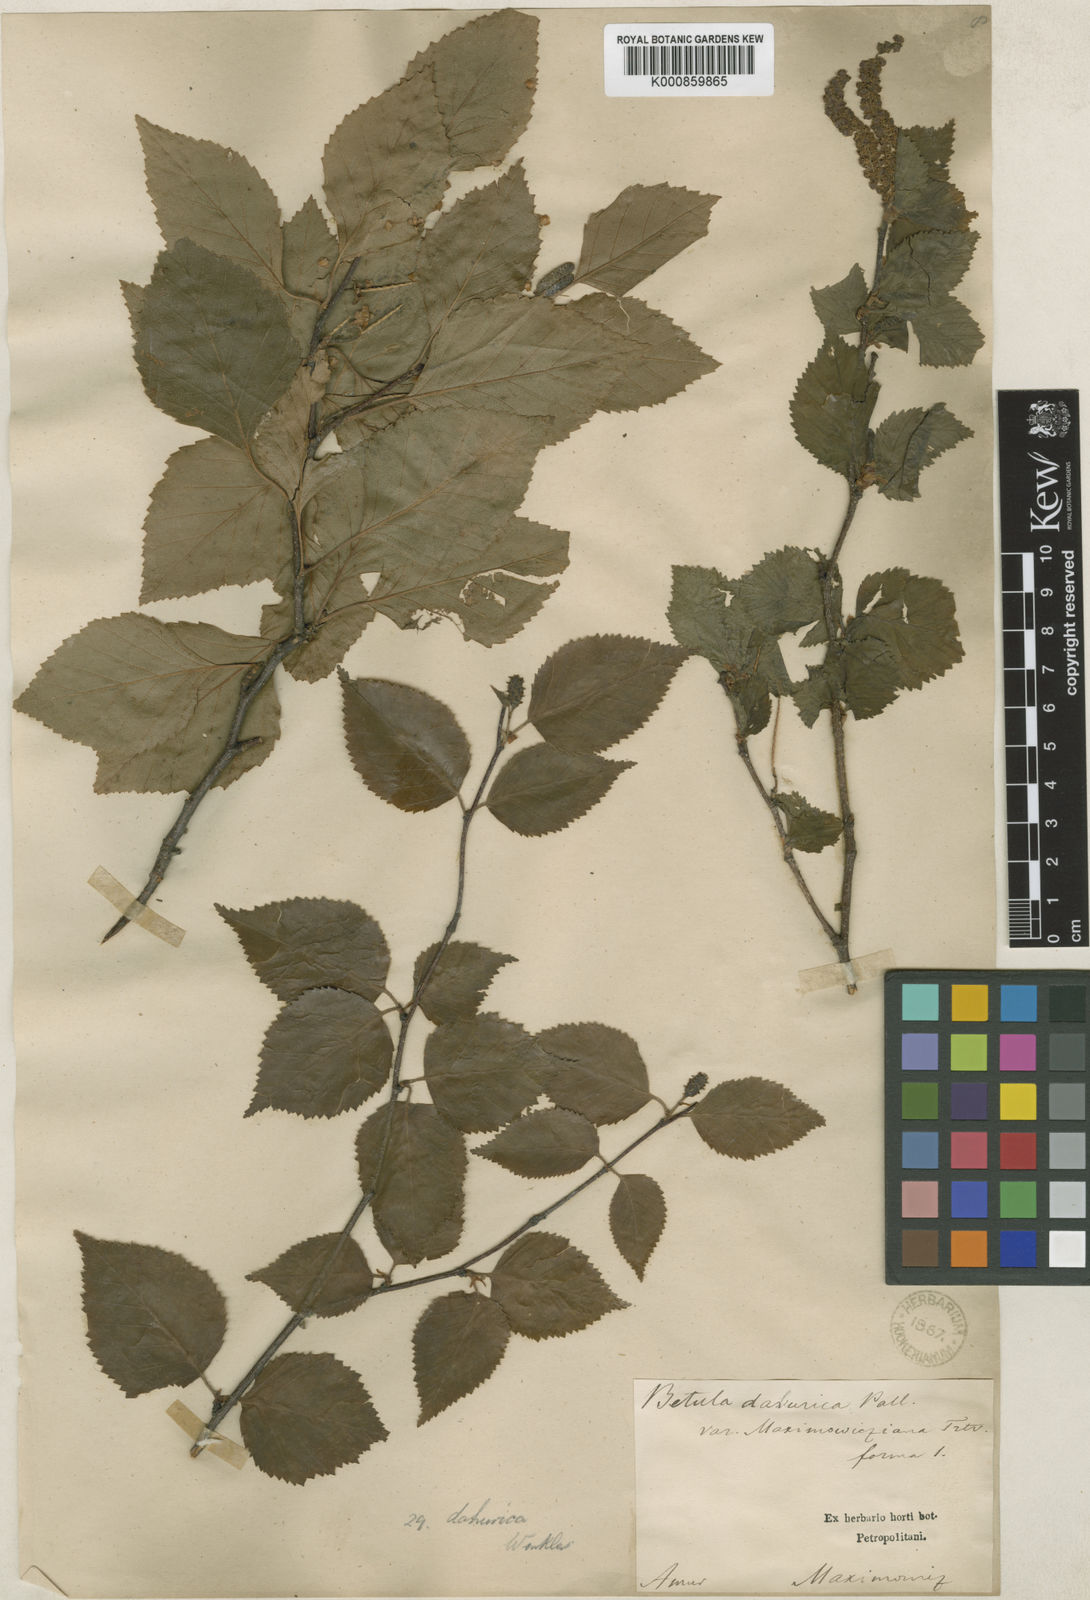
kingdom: Plantae
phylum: Tracheophyta
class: Magnoliopsida
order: Fagales
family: Betulaceae
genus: Betula
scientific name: Betula
